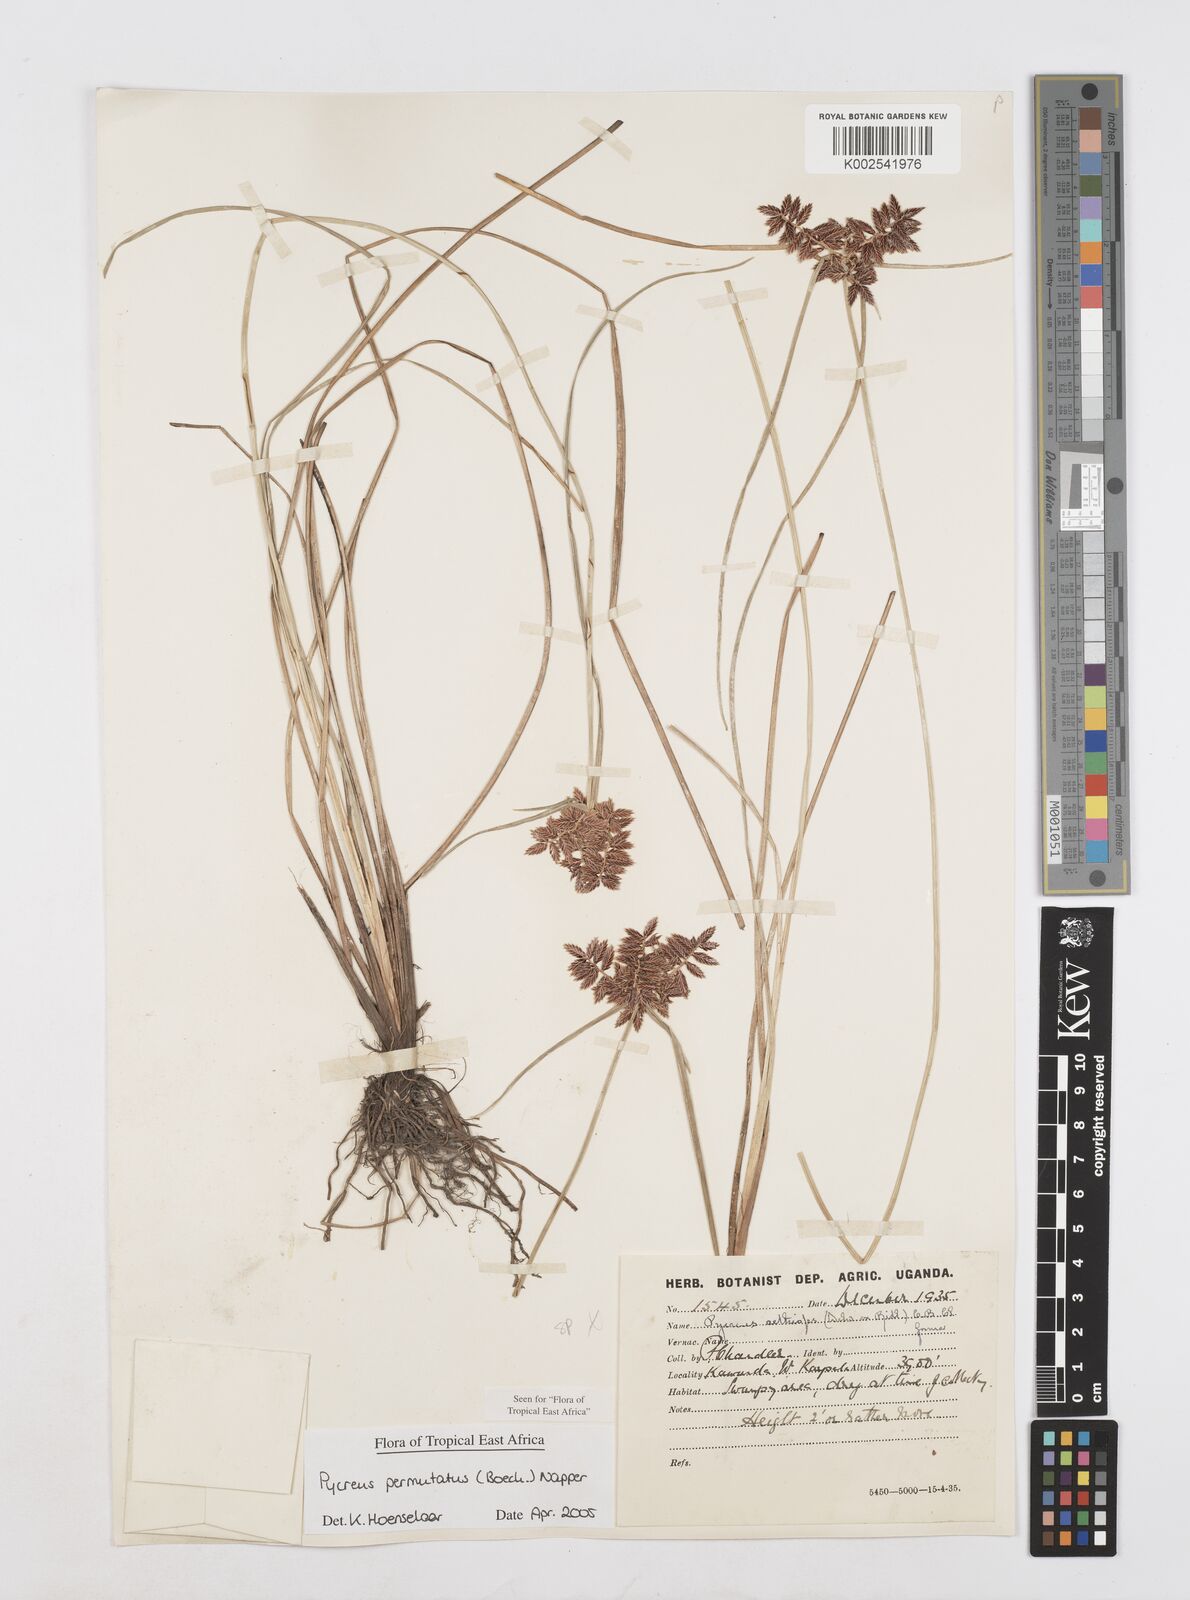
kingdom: Plantae
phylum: Tracheophyta
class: Liliopsida
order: Poales
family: Cyperaceae
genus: Cyperus
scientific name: Cyperus nigricans
